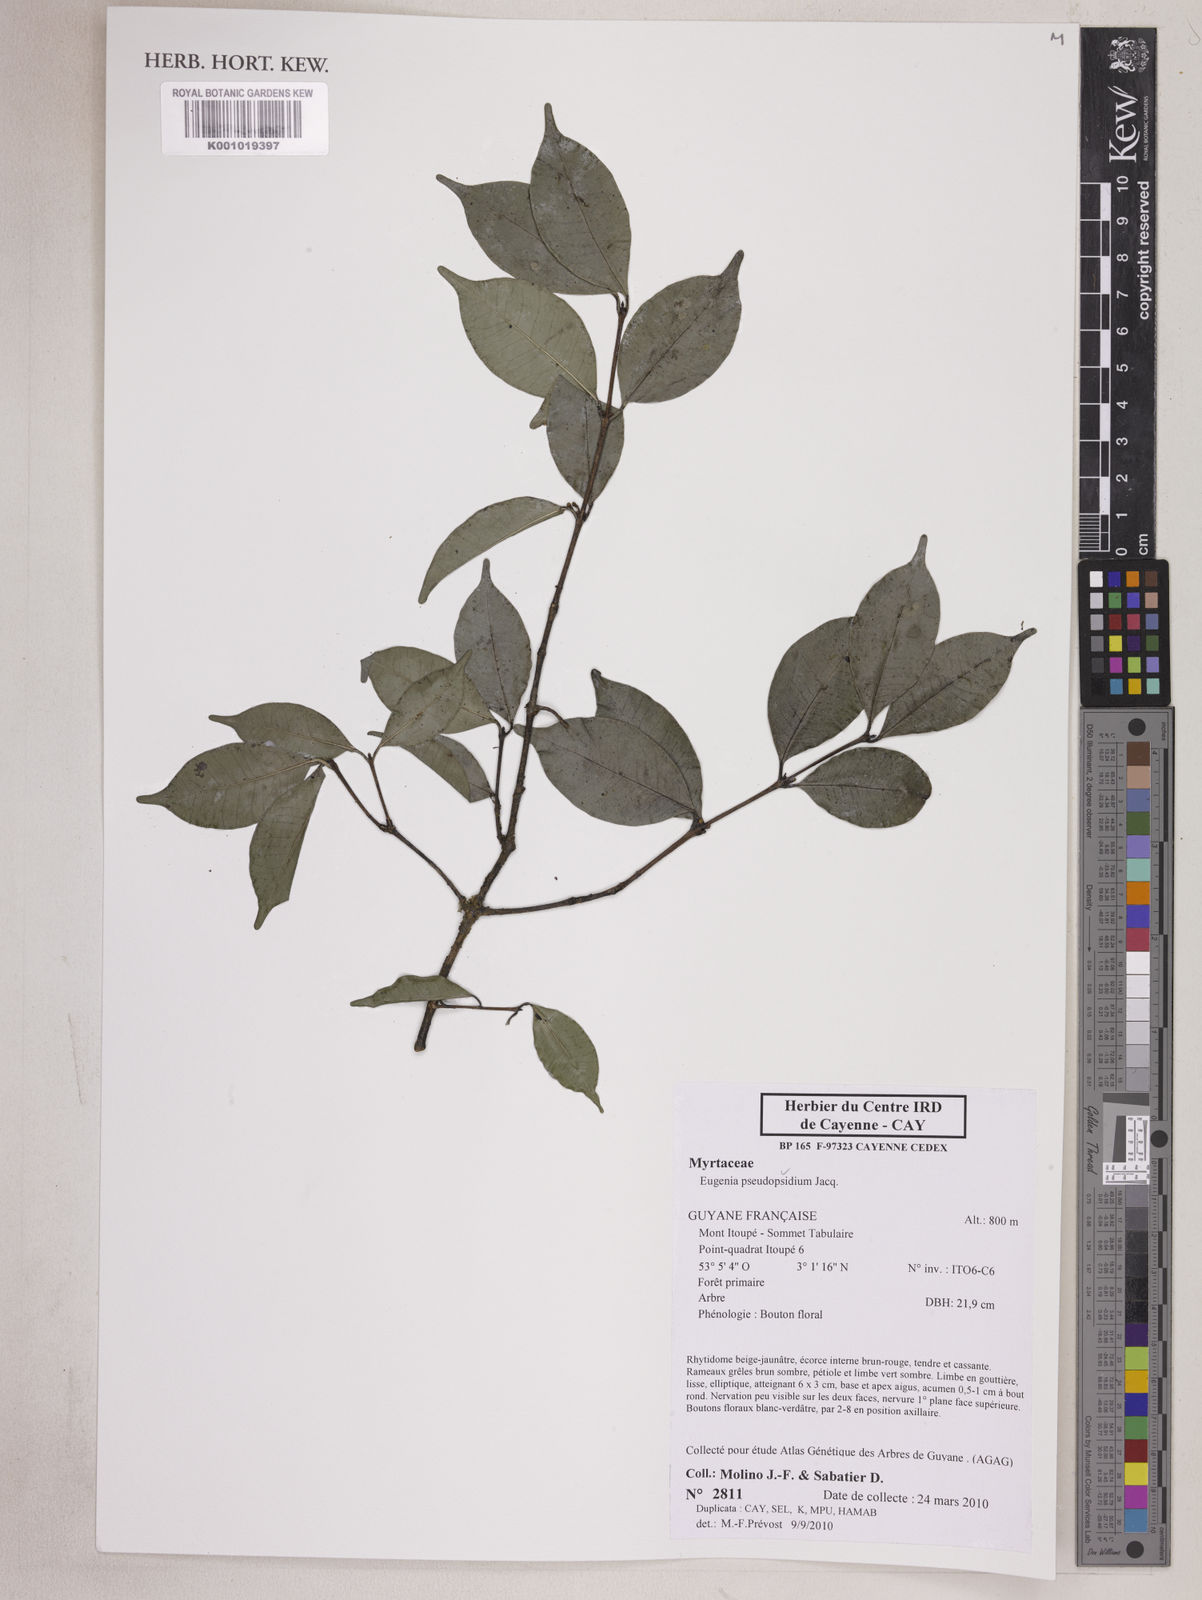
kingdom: Plantae
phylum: Tracheophyta
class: Magnoliopsida
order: Myrtales
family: Myrtaceae
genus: Eugenia
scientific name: Eugenia pseudopsidium
